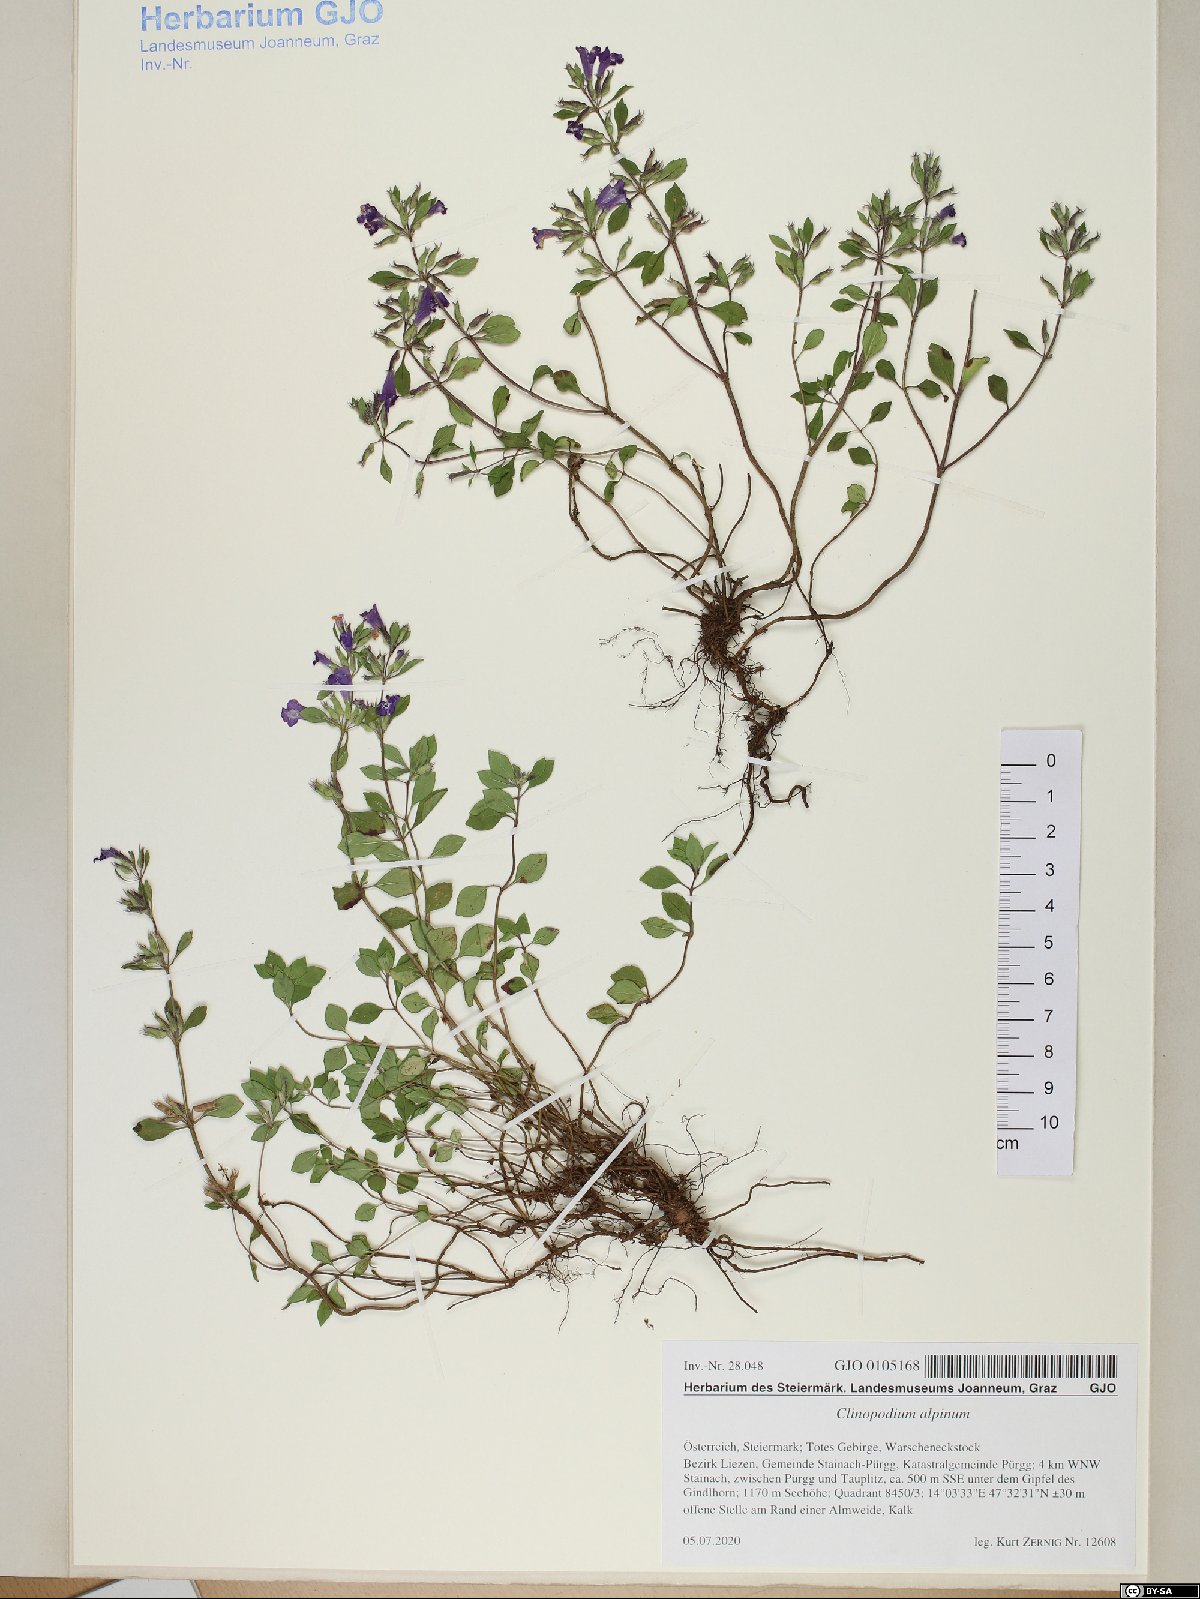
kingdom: Plantae
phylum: Tracheophyta
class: Magnoliopsida
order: Lamiales
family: Lamiaceae
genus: Clinopodium
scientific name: Clinopodium alpinum
